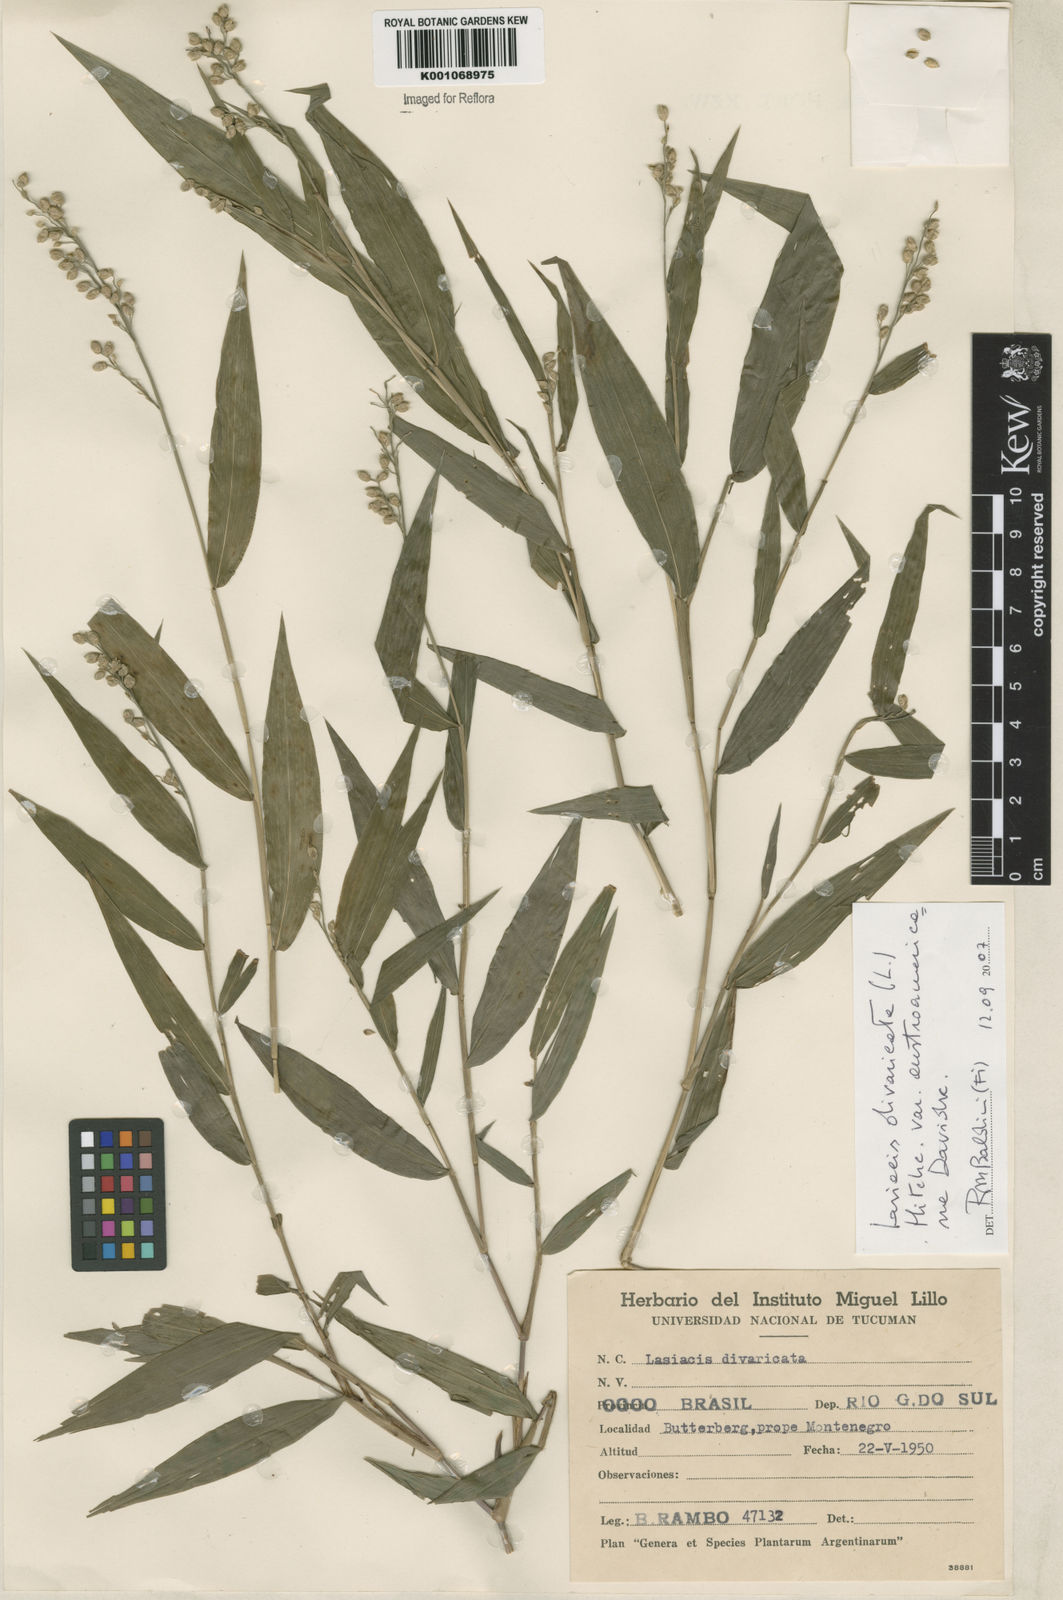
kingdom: Plantae
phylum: Tracheophyta
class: Liliopsida
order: Poales
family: Poaceae
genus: Lasiacis
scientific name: Lasiacis divaricata
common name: Smallcane
